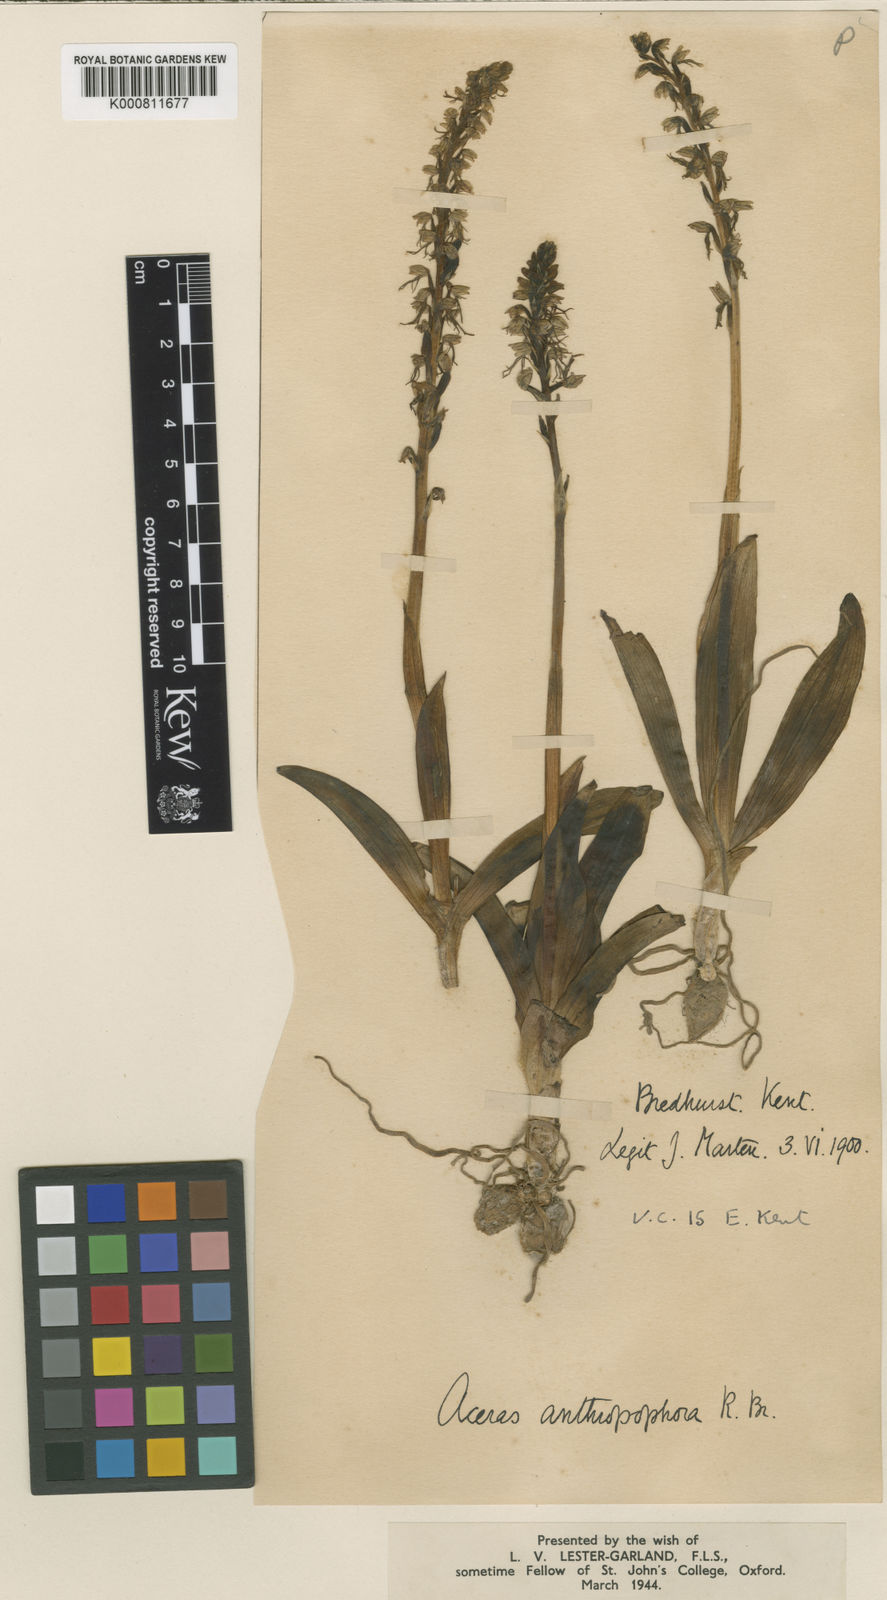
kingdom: Plantae
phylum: Tracheophyta
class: Liliopsida
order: Asparagales
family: Orchidaceae
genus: Orchis
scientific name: Orchis
